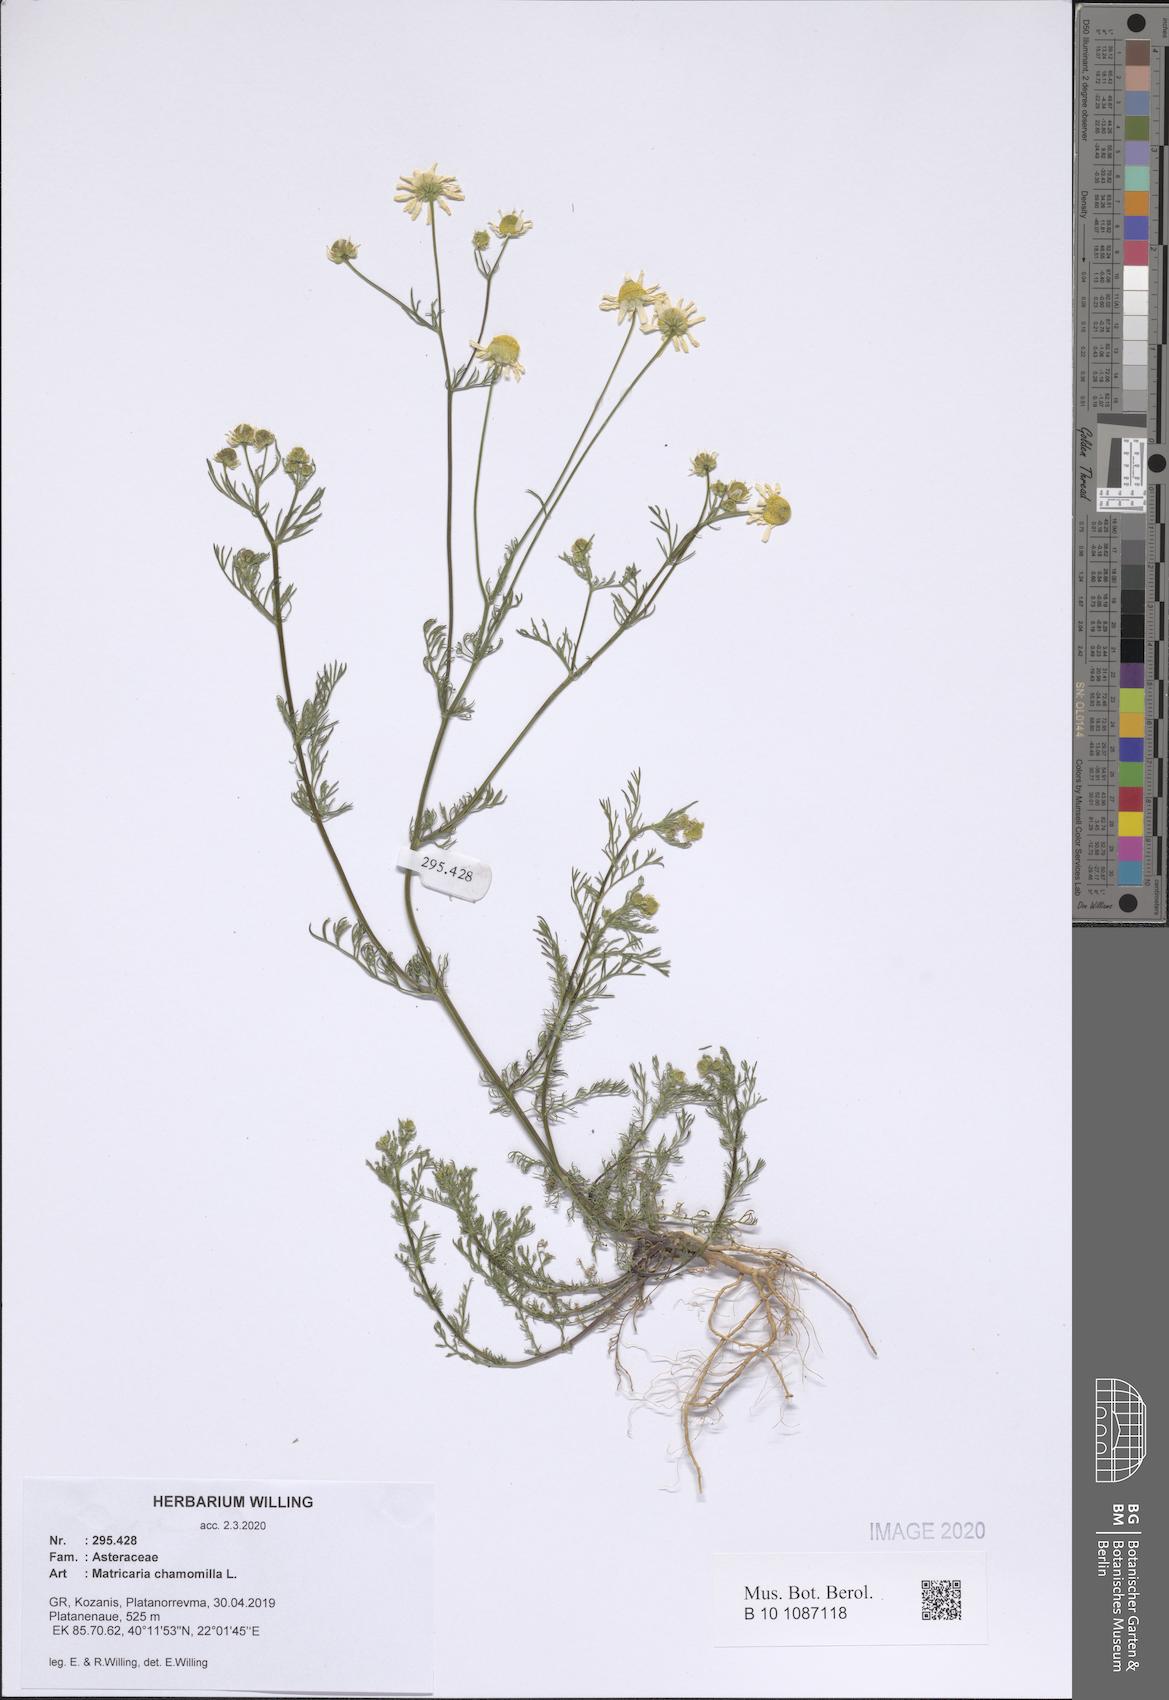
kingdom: Plantae
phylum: Tracheophyta
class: Magnoliopsida
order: Asterales
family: Asteraceae
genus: Matricaria
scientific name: Matricaria chamomilla
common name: Scented mayweed
